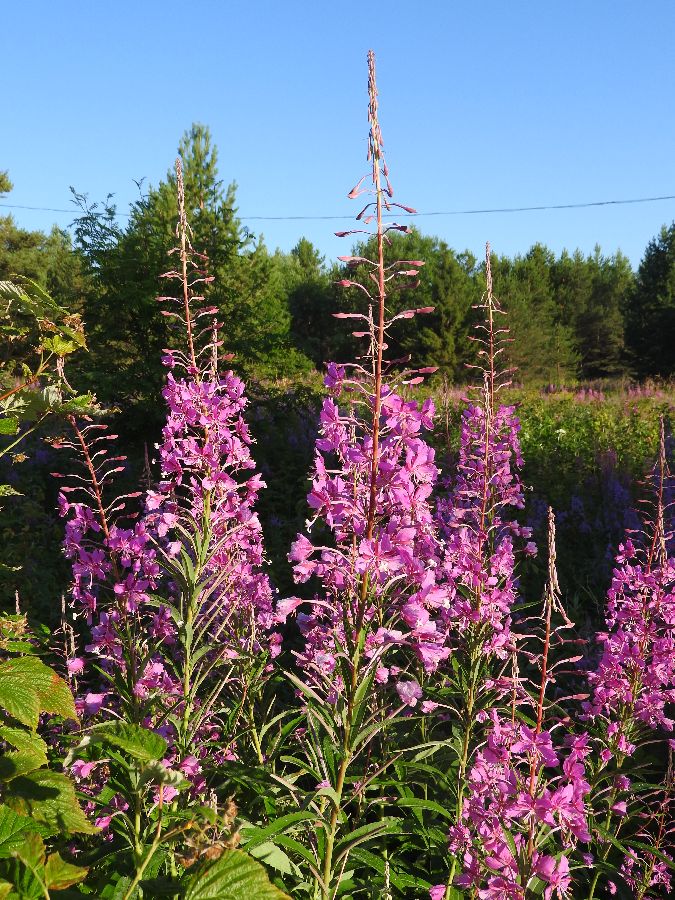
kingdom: Plantae
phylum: Tracheophyta
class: Magnoliopsida
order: Myrtales
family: Onagraceae
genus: Chamaenerion
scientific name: Chamaenerion angustifolium
